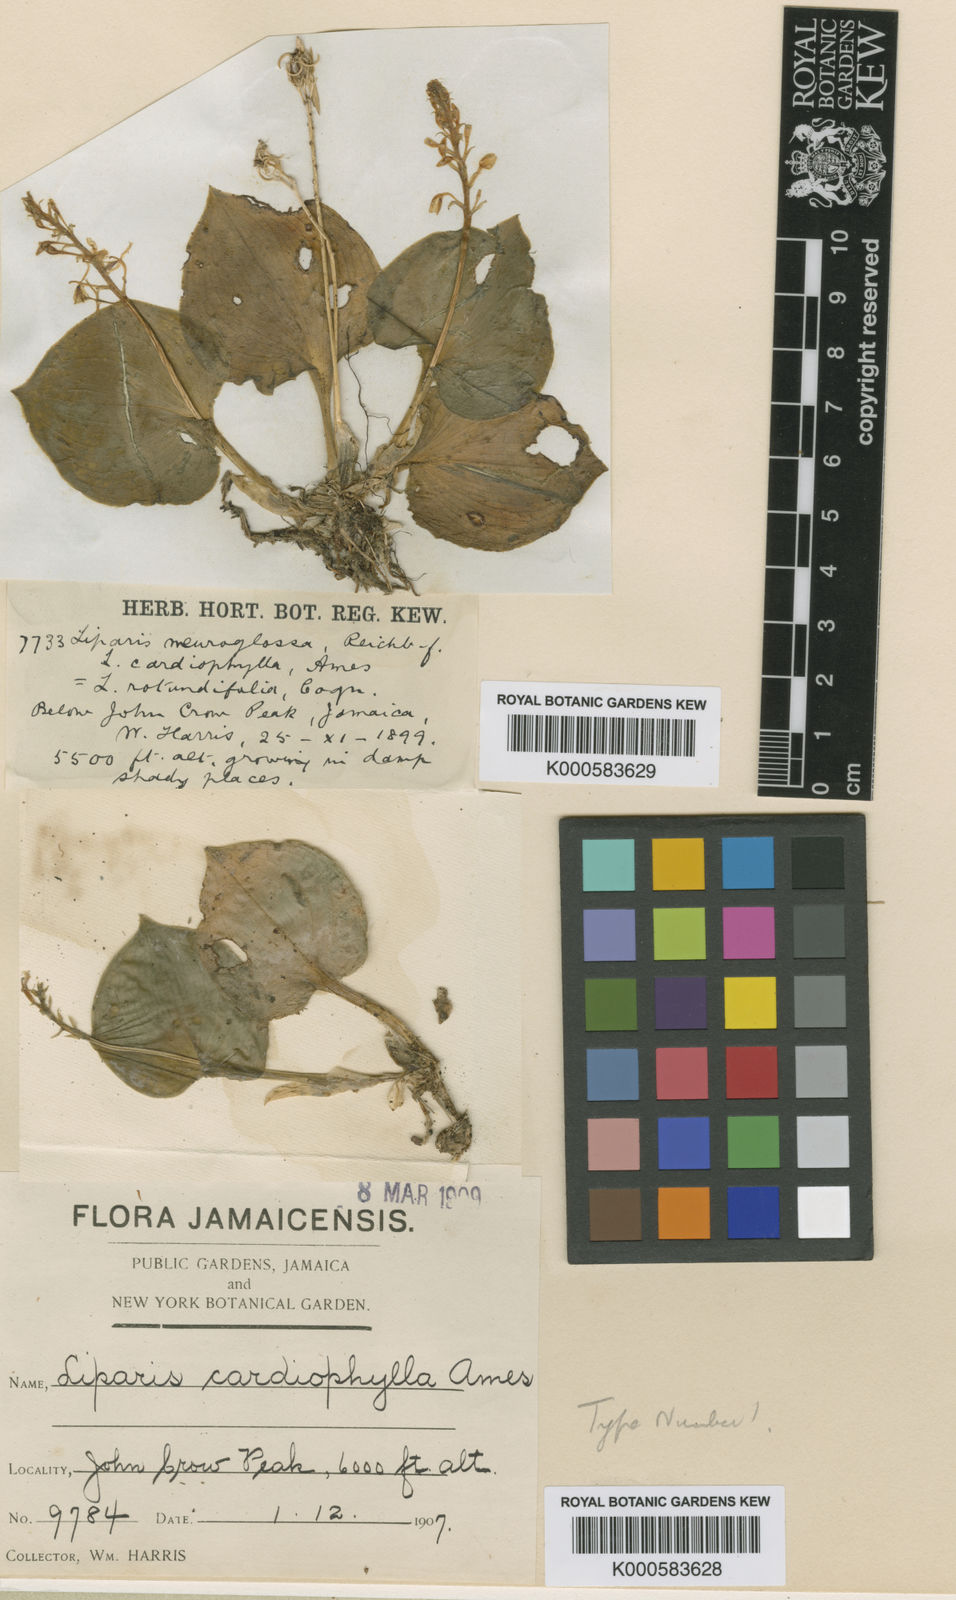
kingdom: Plantae
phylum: Tracheophyta
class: Liliopsida
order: Asparagales
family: Orchidaceae
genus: Liparis
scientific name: Liparis cardiophylla
